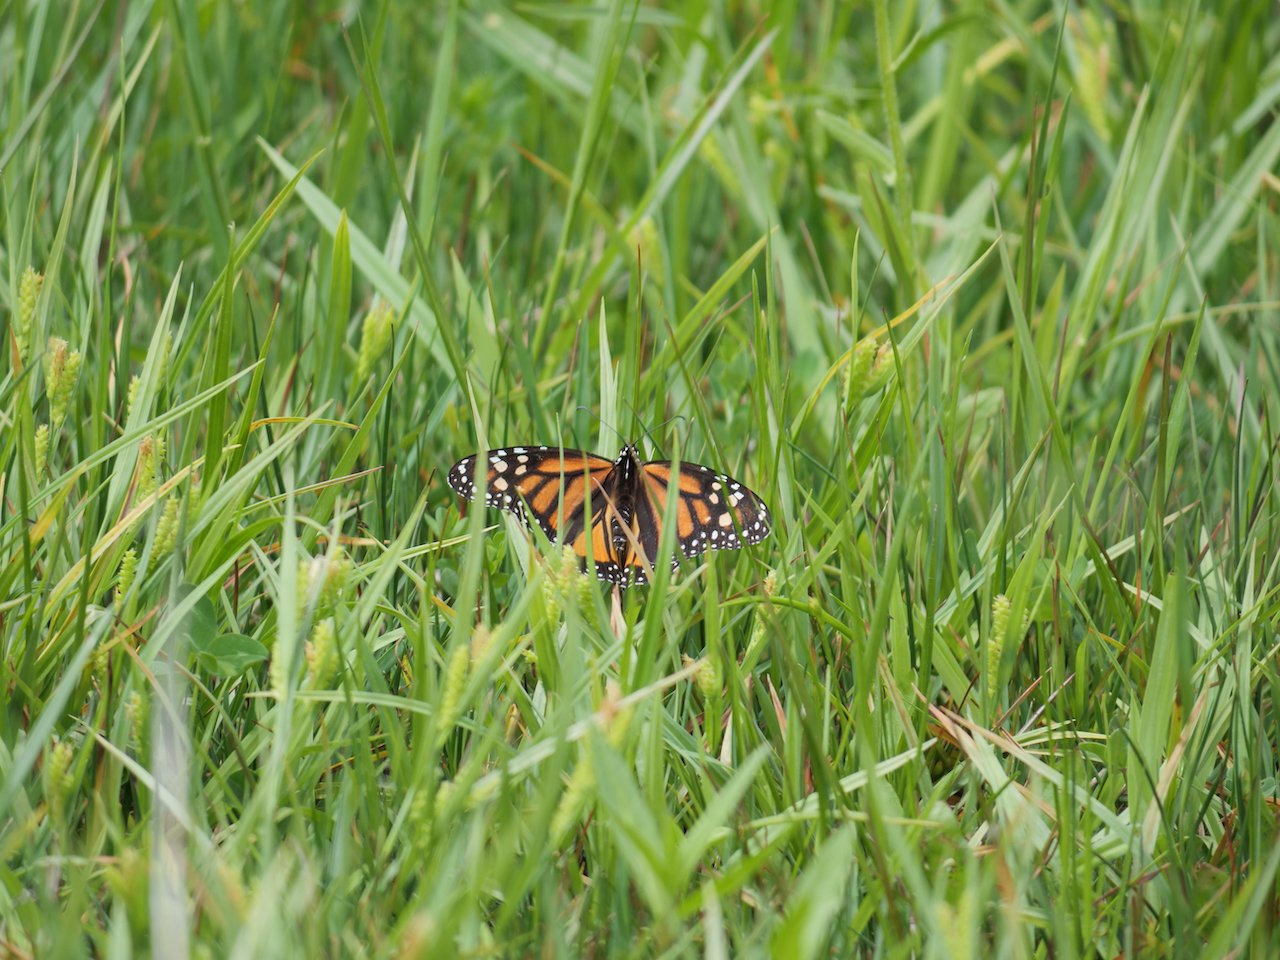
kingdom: Animalia
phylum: Arthropoda
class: Insecta
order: Lepidoptera
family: Nymphalidae
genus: Danaus
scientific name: Danaus plexippus
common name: Monarch
